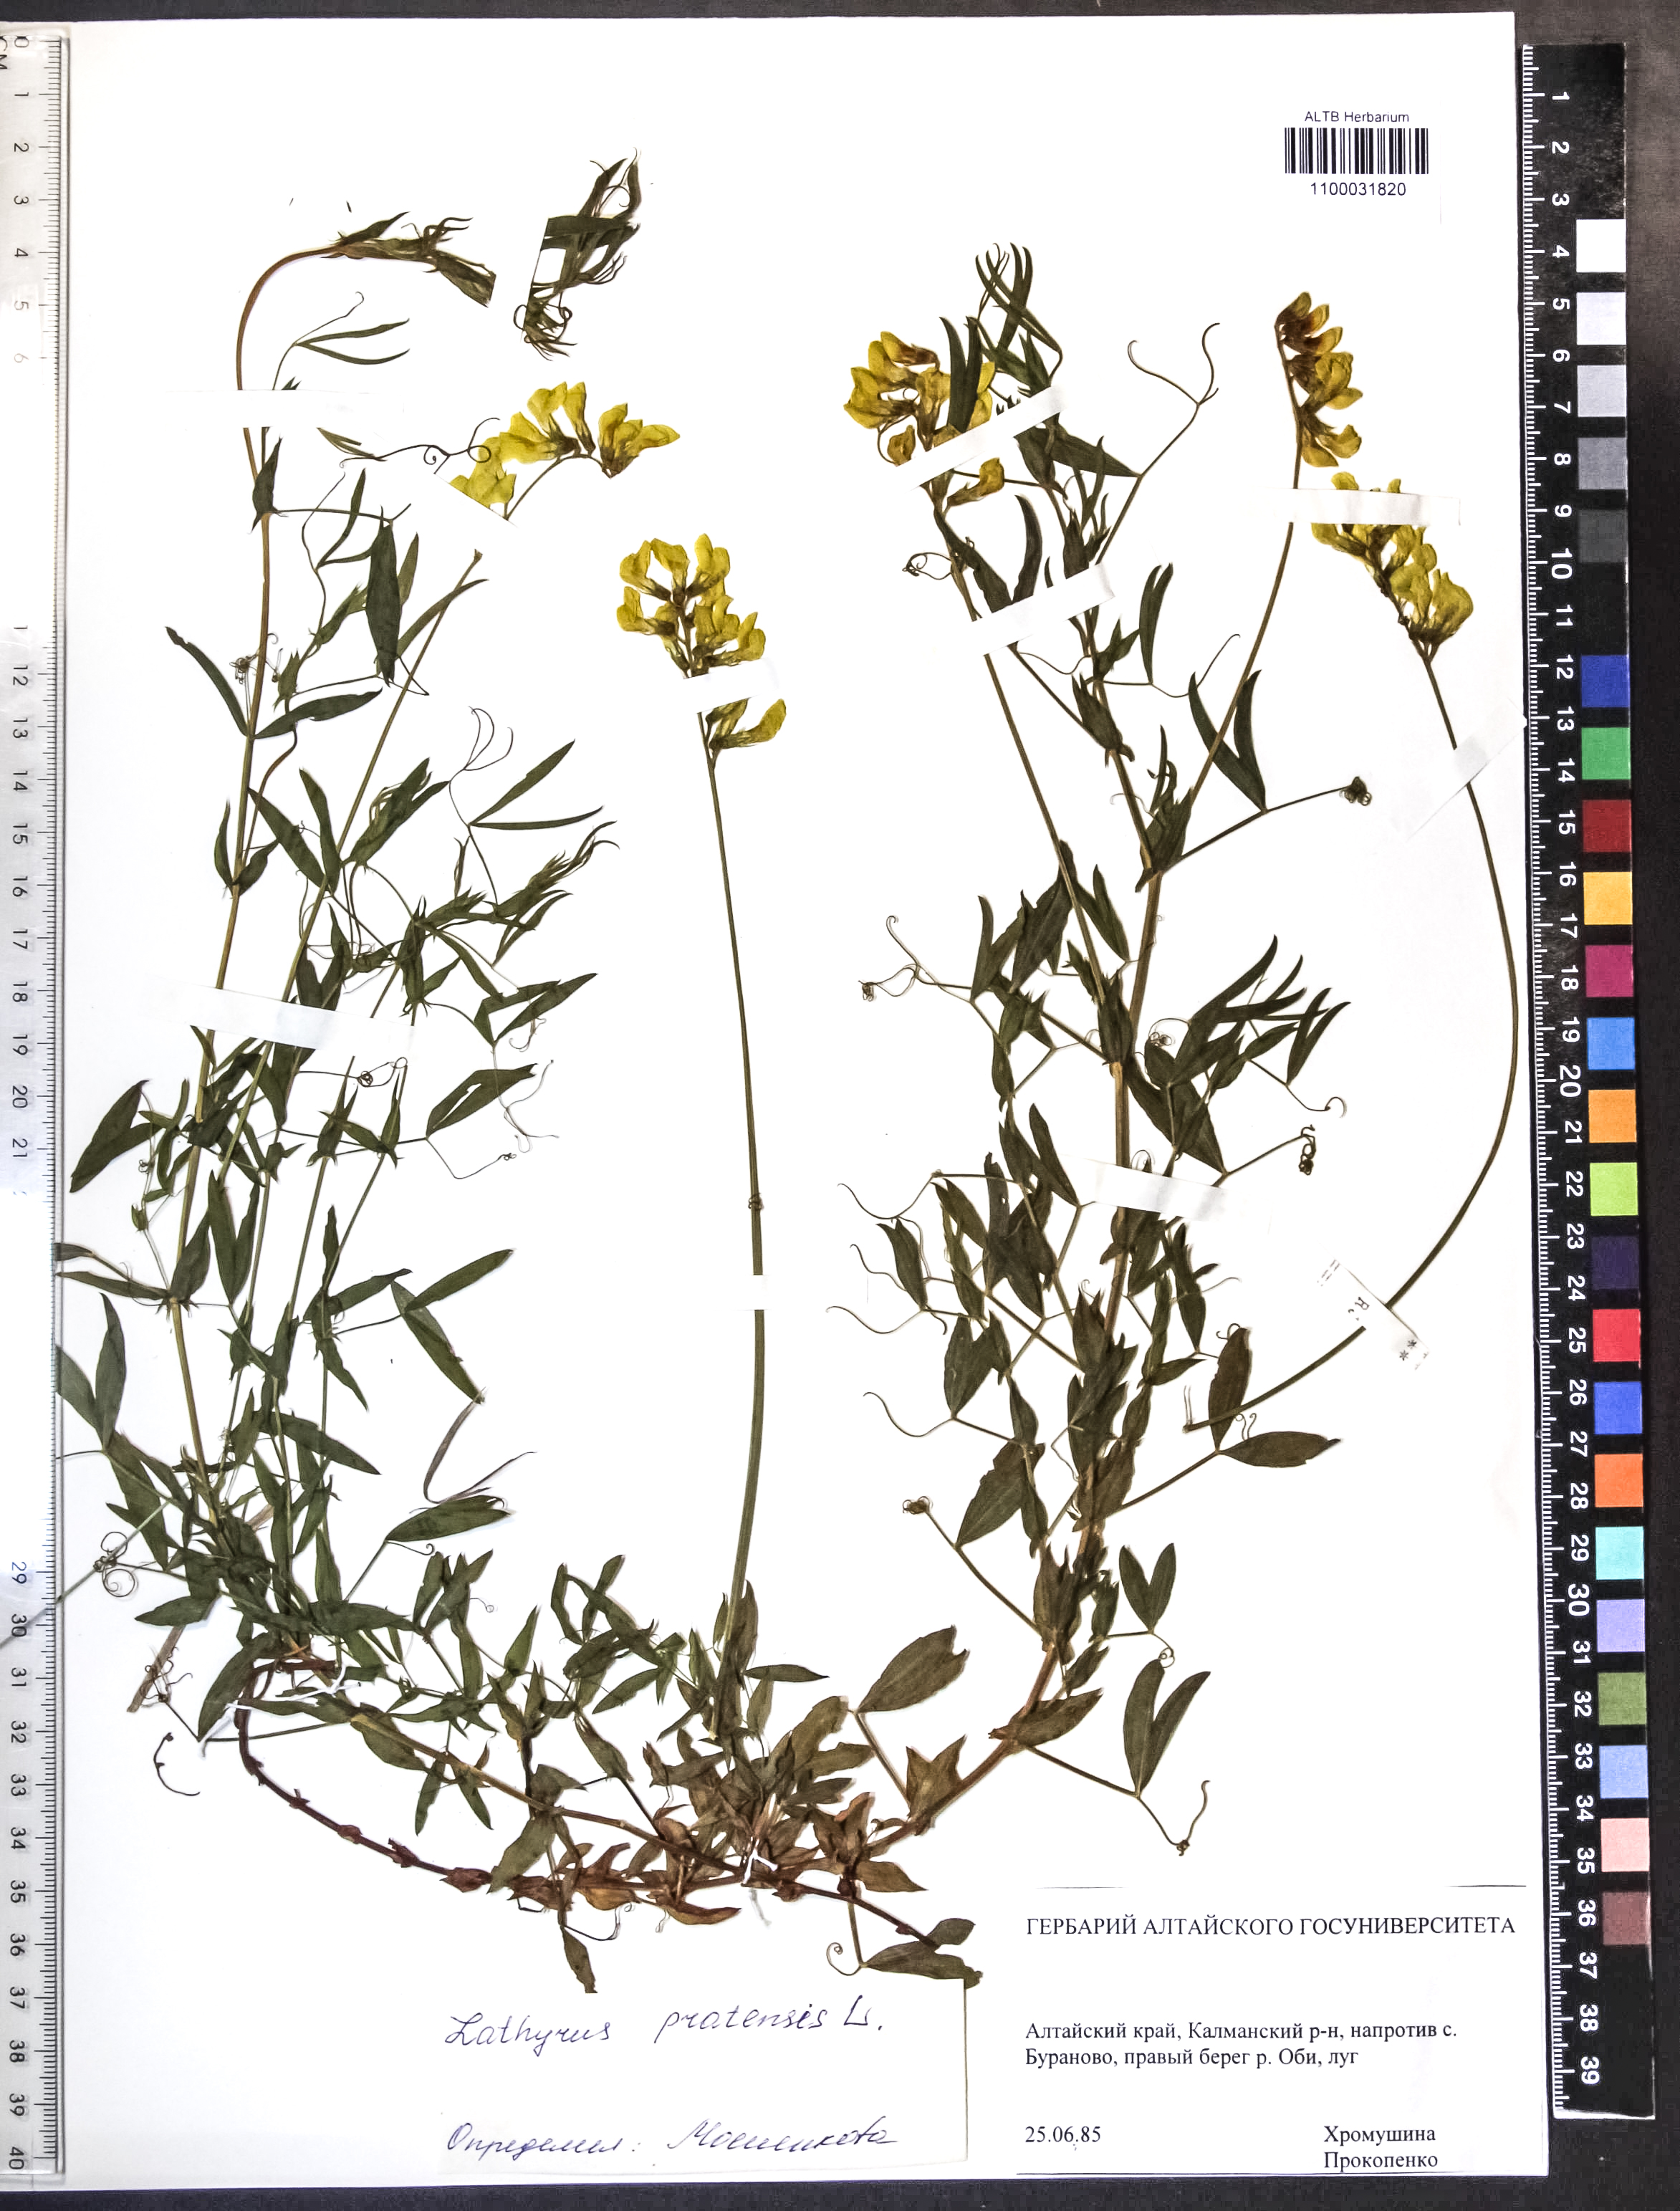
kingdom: Plantae
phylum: Tracheophyta
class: Magnoliopsida
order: Fabales
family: Fabaceae
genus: Lathyrus
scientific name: Lathyrus pratensis
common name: Meadow vetchling
